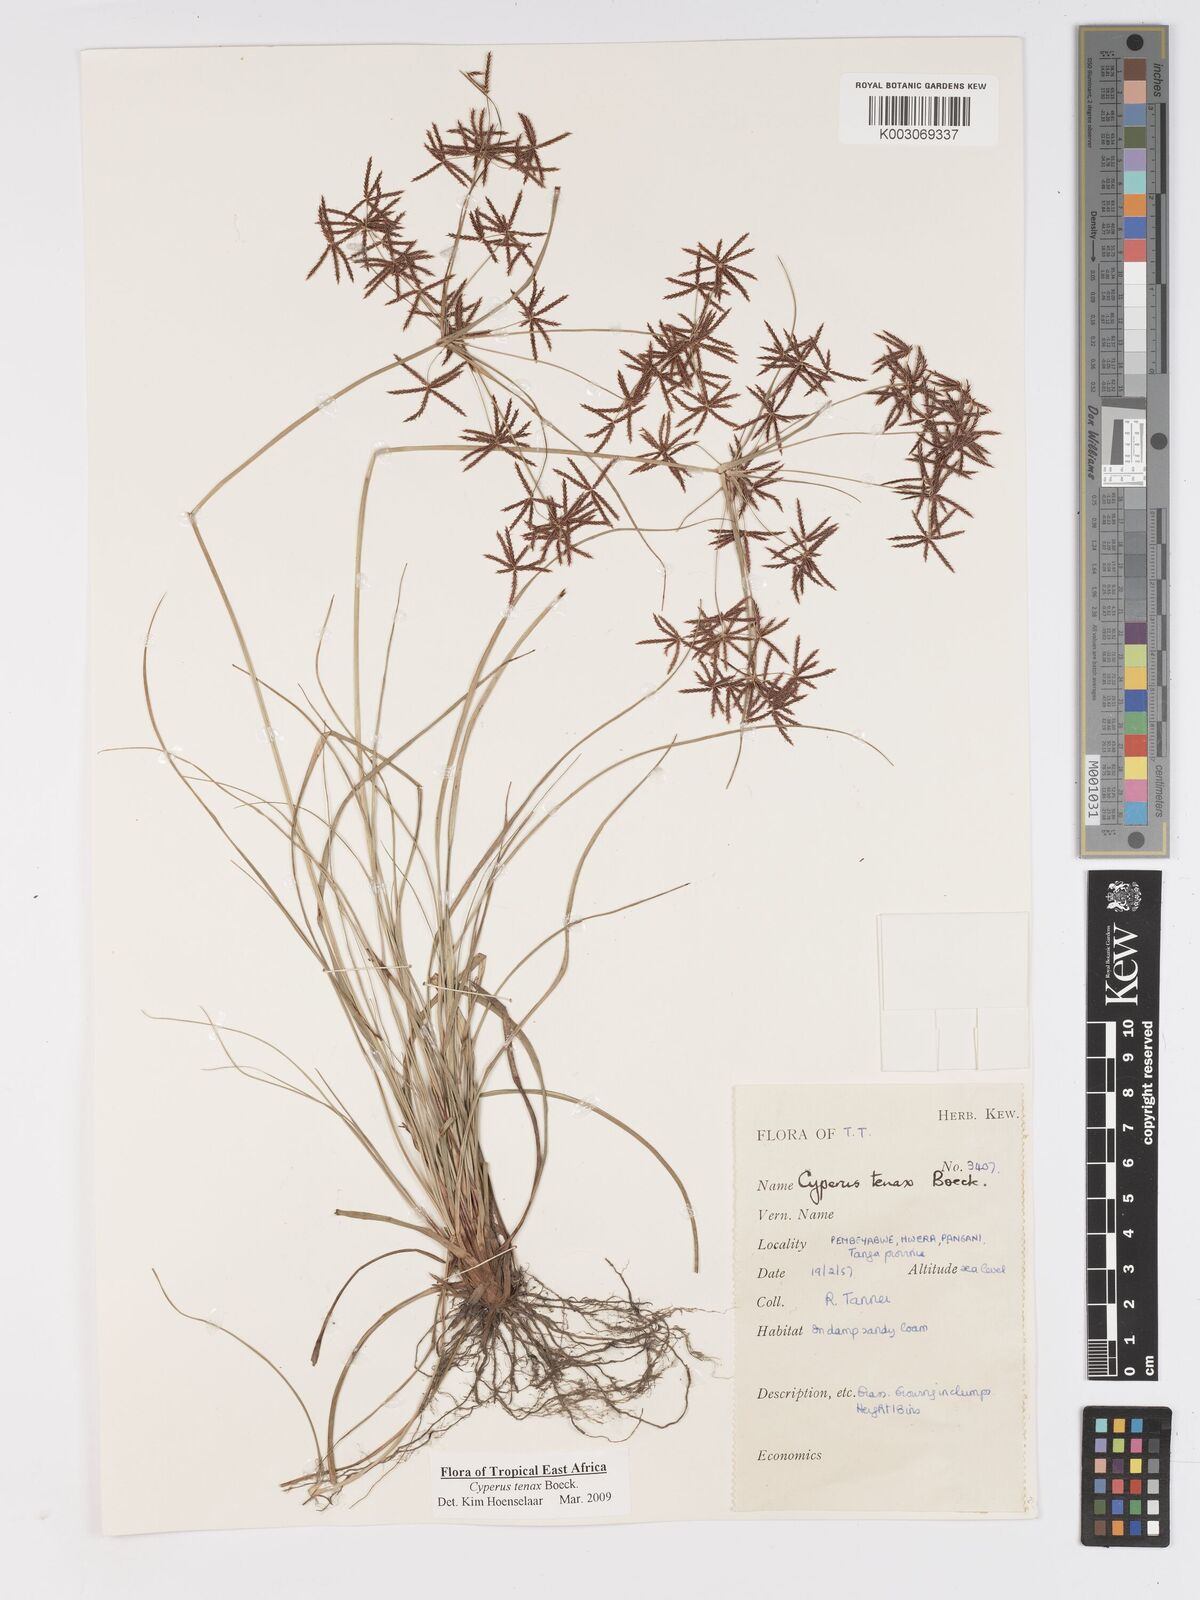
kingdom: Plantae
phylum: Tracheophyta
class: Liliopsida
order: Poales
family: Cyperaceae
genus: Cyperus
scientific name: Cyperus tenax
